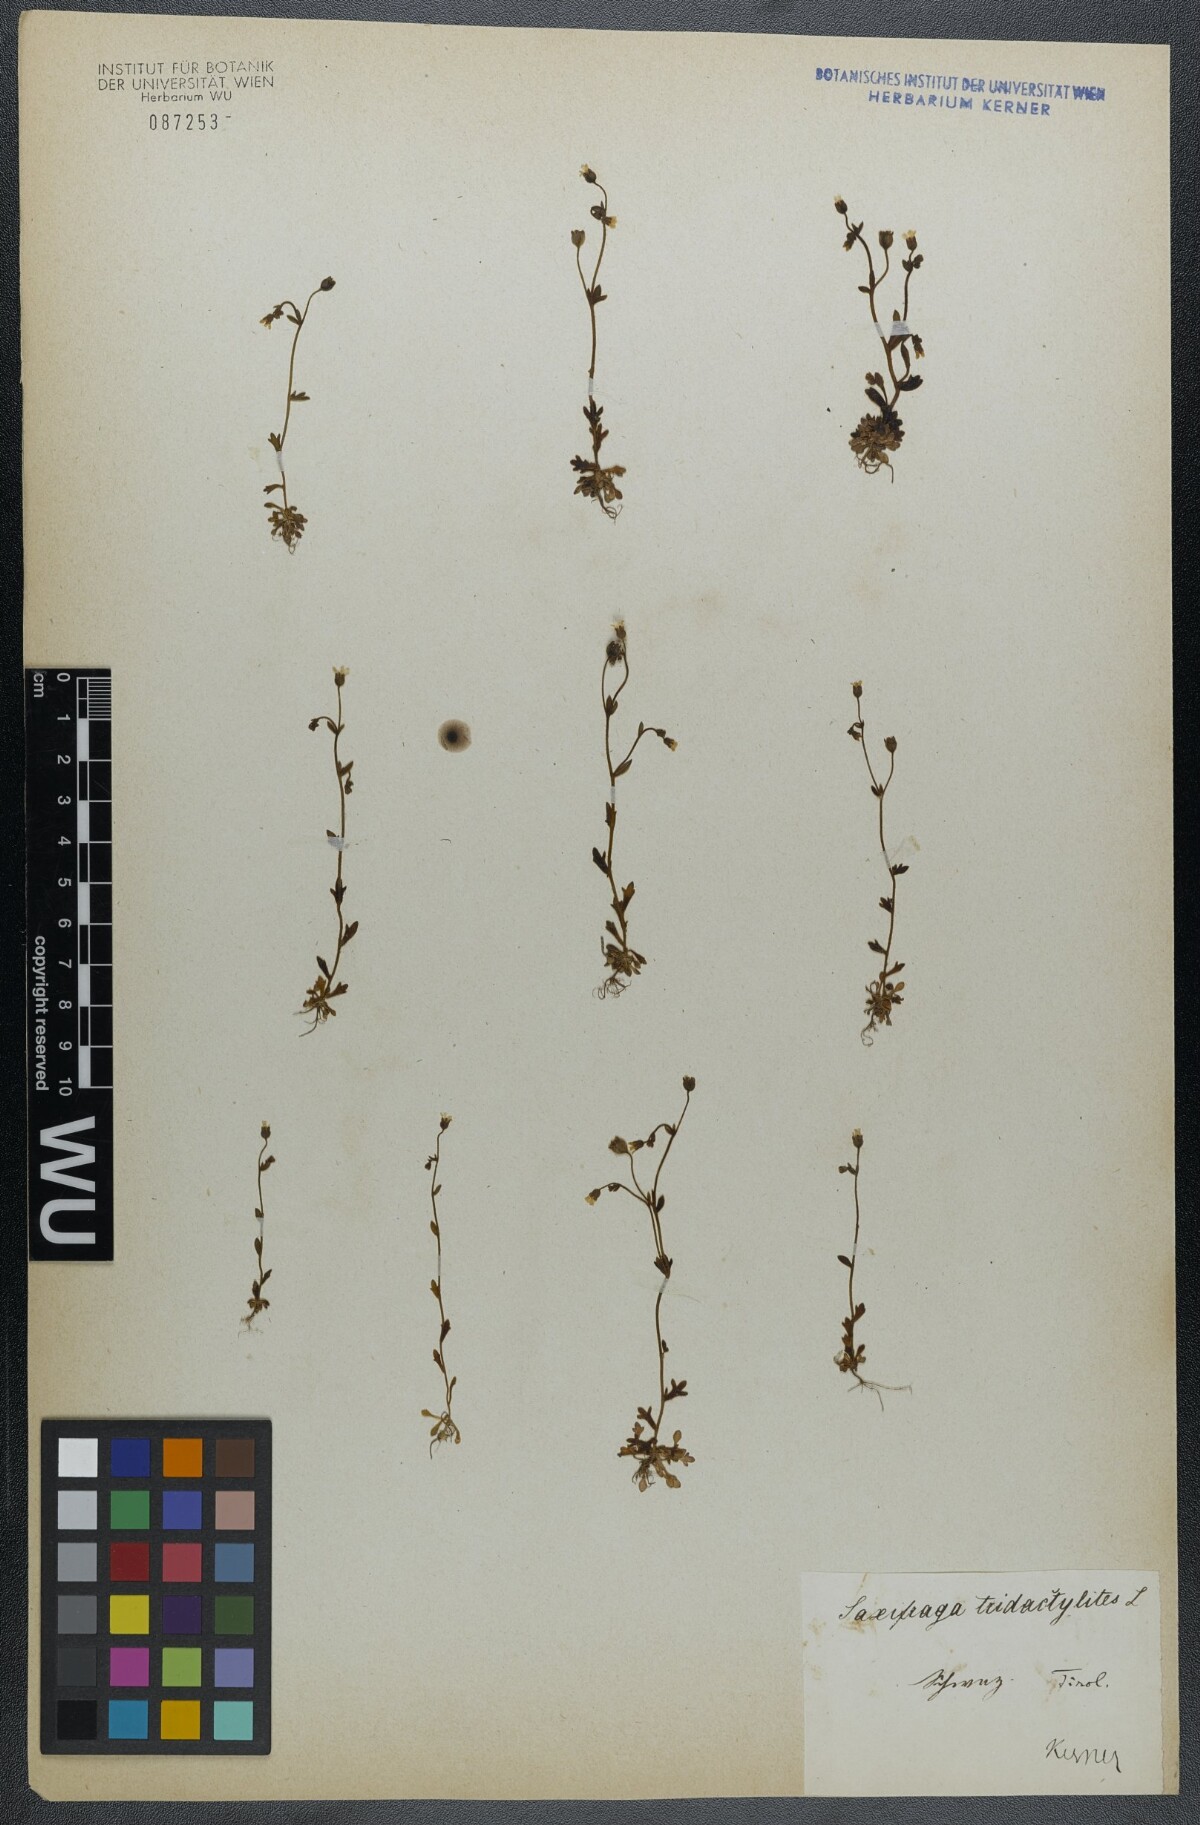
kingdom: Plantae
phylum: Tracheophyta
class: Magnoliopsida
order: Saxifragales
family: Saxifragaceae
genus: Saxifraga
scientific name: Saxifraga tridactylites
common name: Rue-leaved saxifrage
